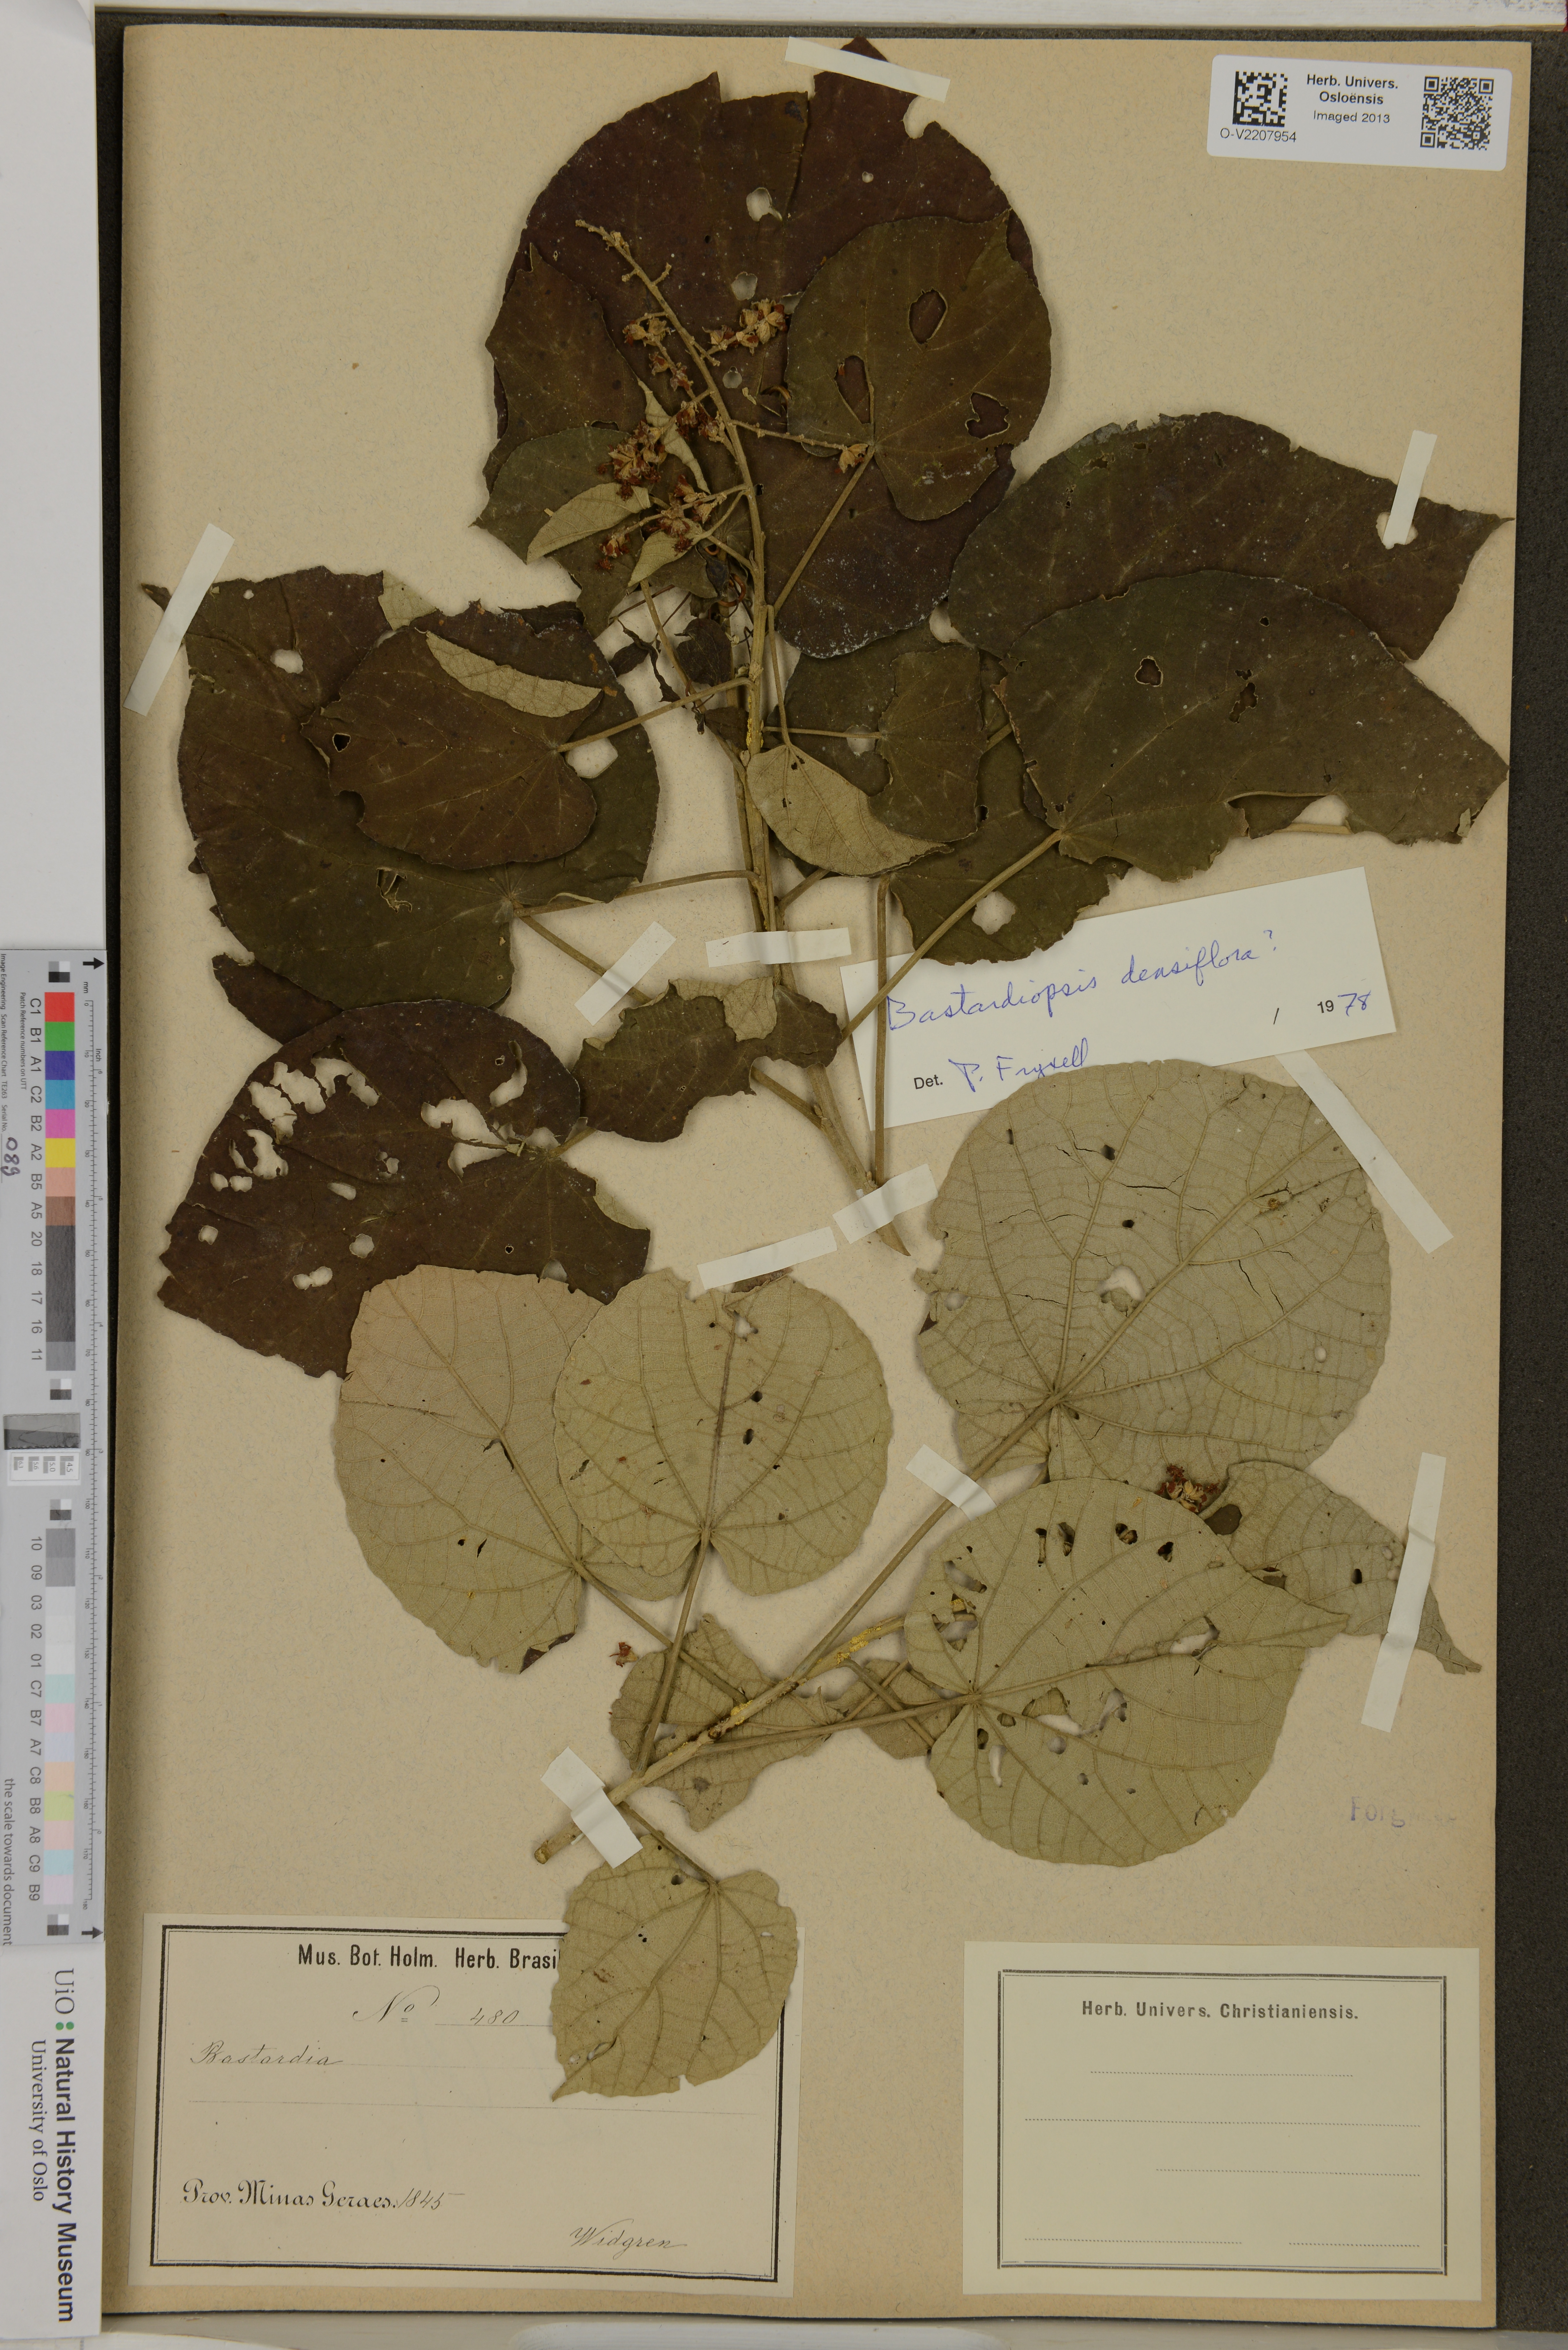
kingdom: Plantae
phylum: Tracheophyta
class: Magnoliopsida
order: Malvales
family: Malvaceae
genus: Abutilon
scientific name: Abutilon
